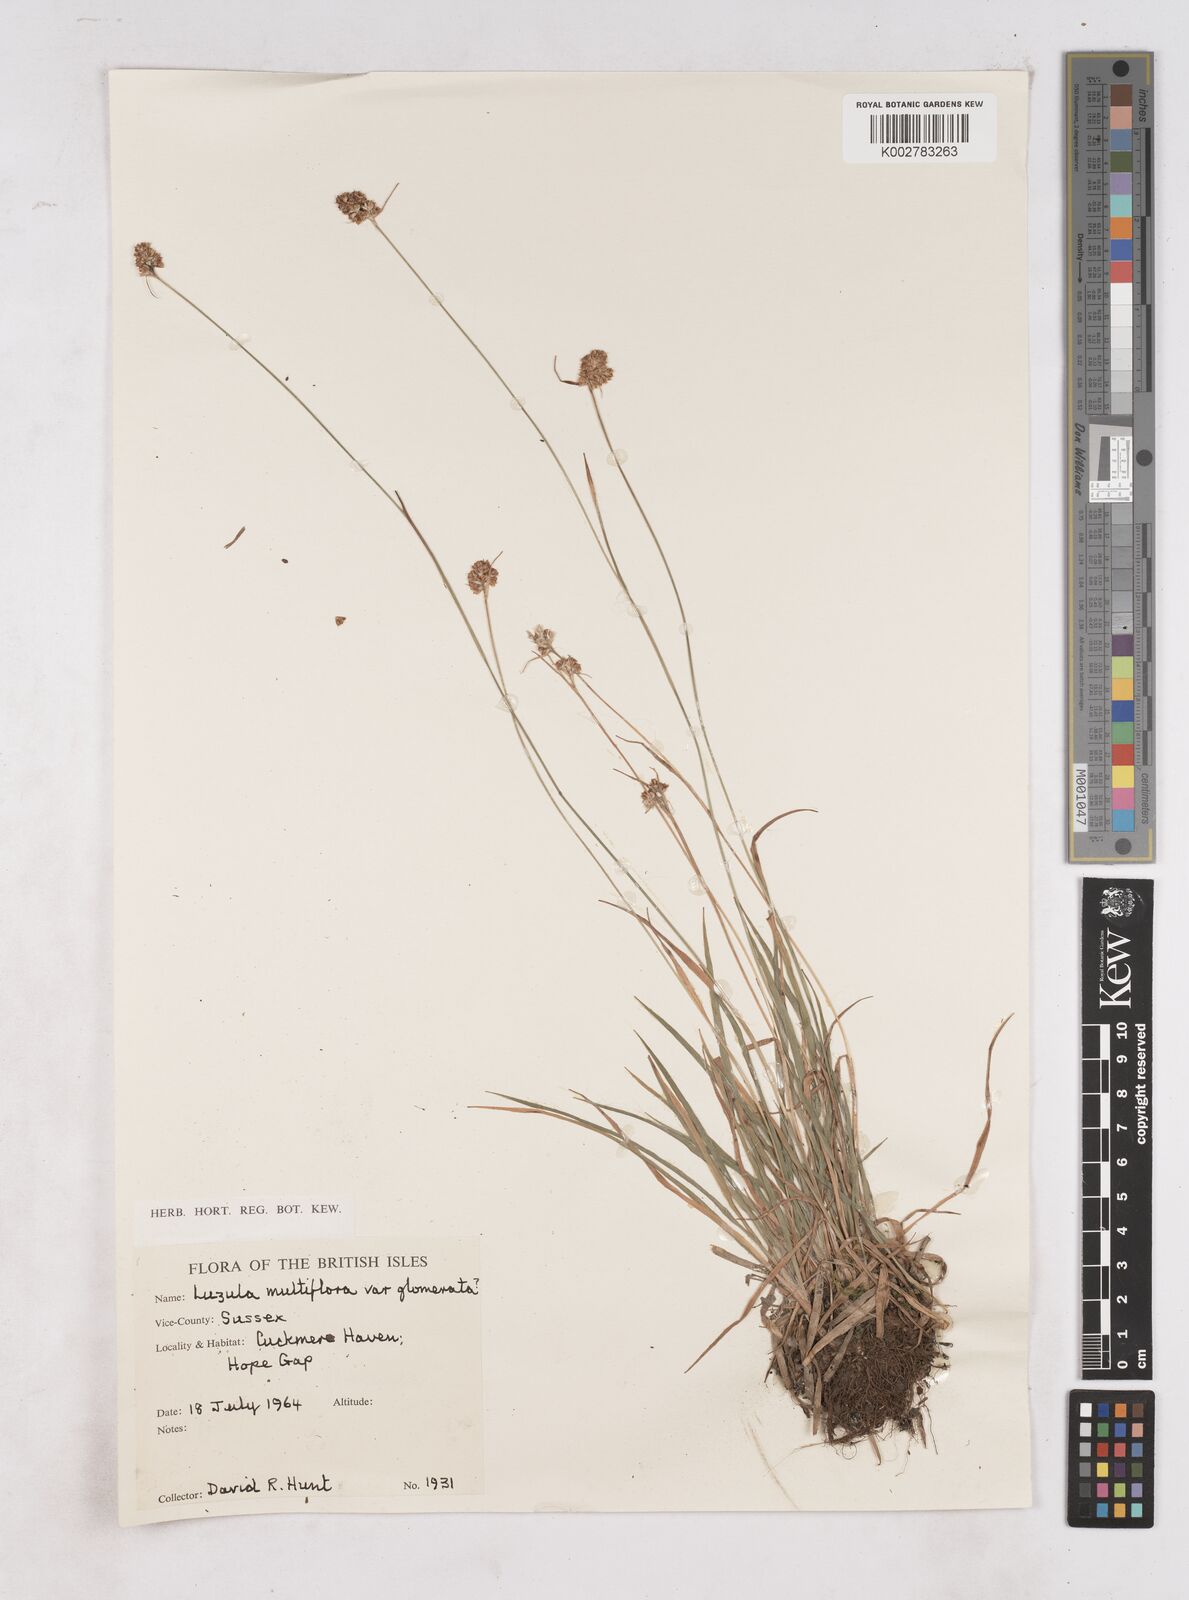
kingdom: Plantae
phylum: Tracheophyta
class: Liliopsida
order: Poales
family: Juncaceae
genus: Luzula
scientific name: Luzula multiflora
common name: Heath wood-rush
